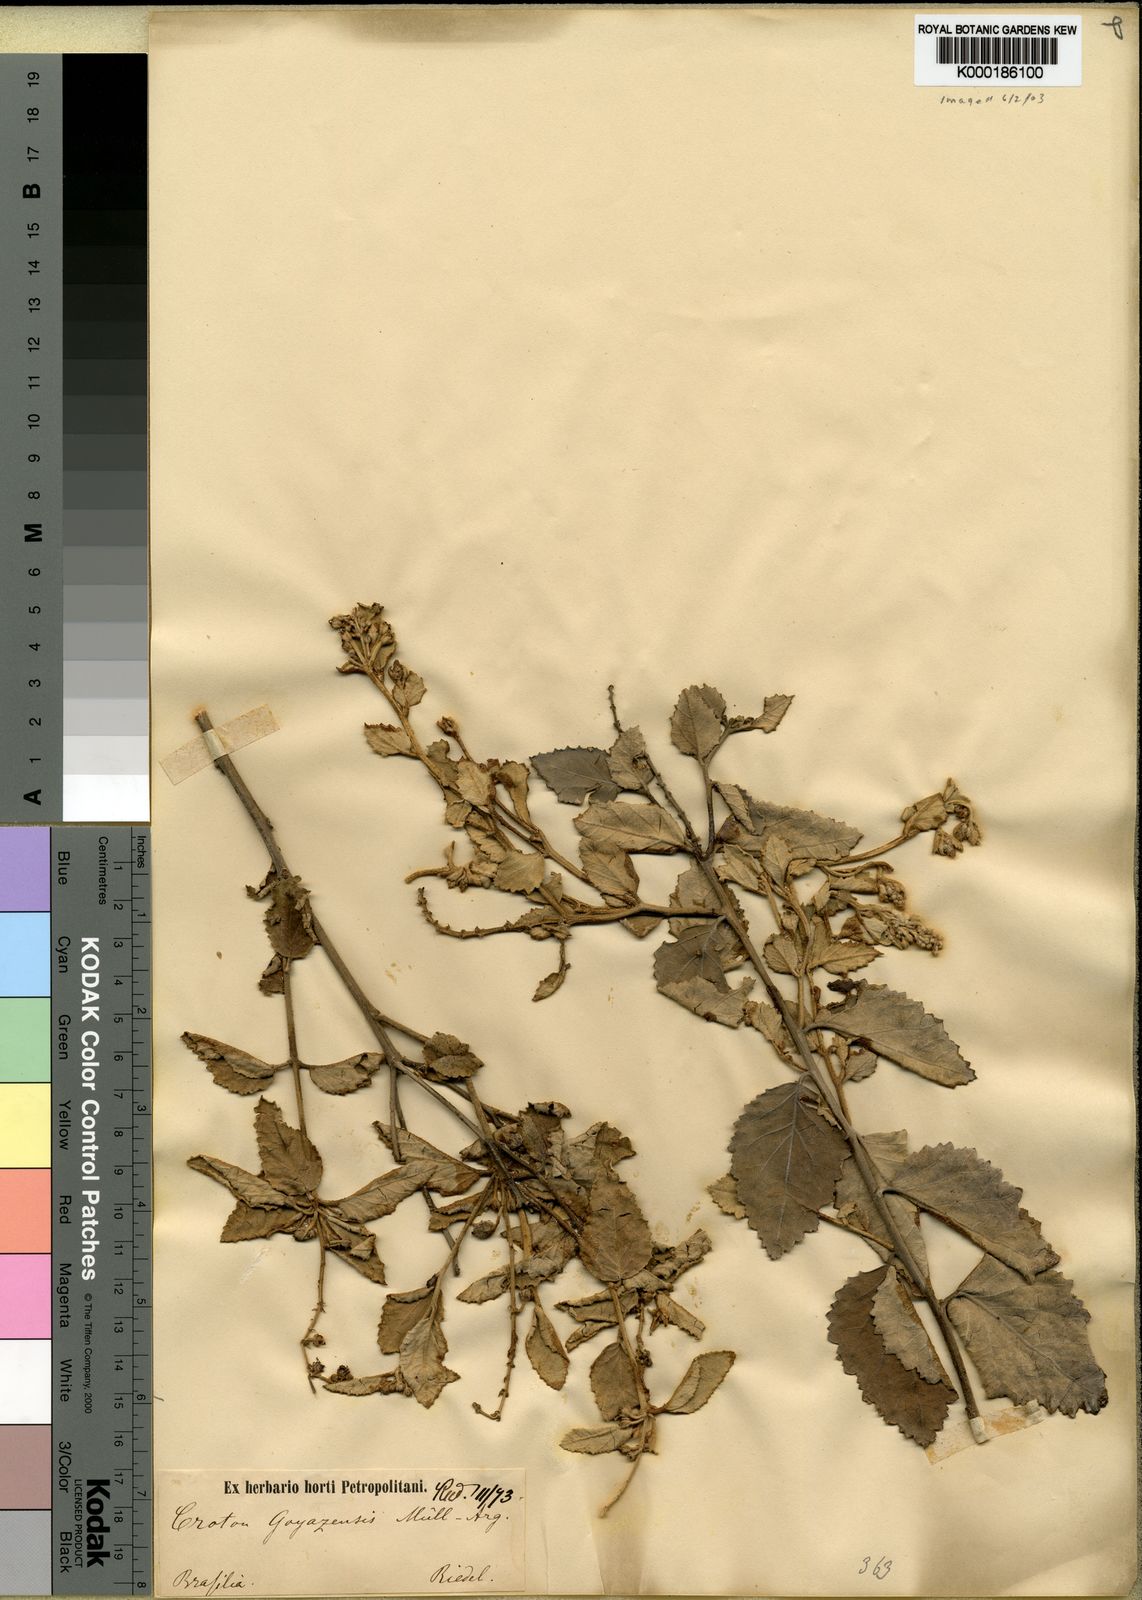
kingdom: Plantae
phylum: Tracheophyta
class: Magnoliopsida
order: Malpighiales
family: Euphorbiaceae
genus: Croton
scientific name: Croton
